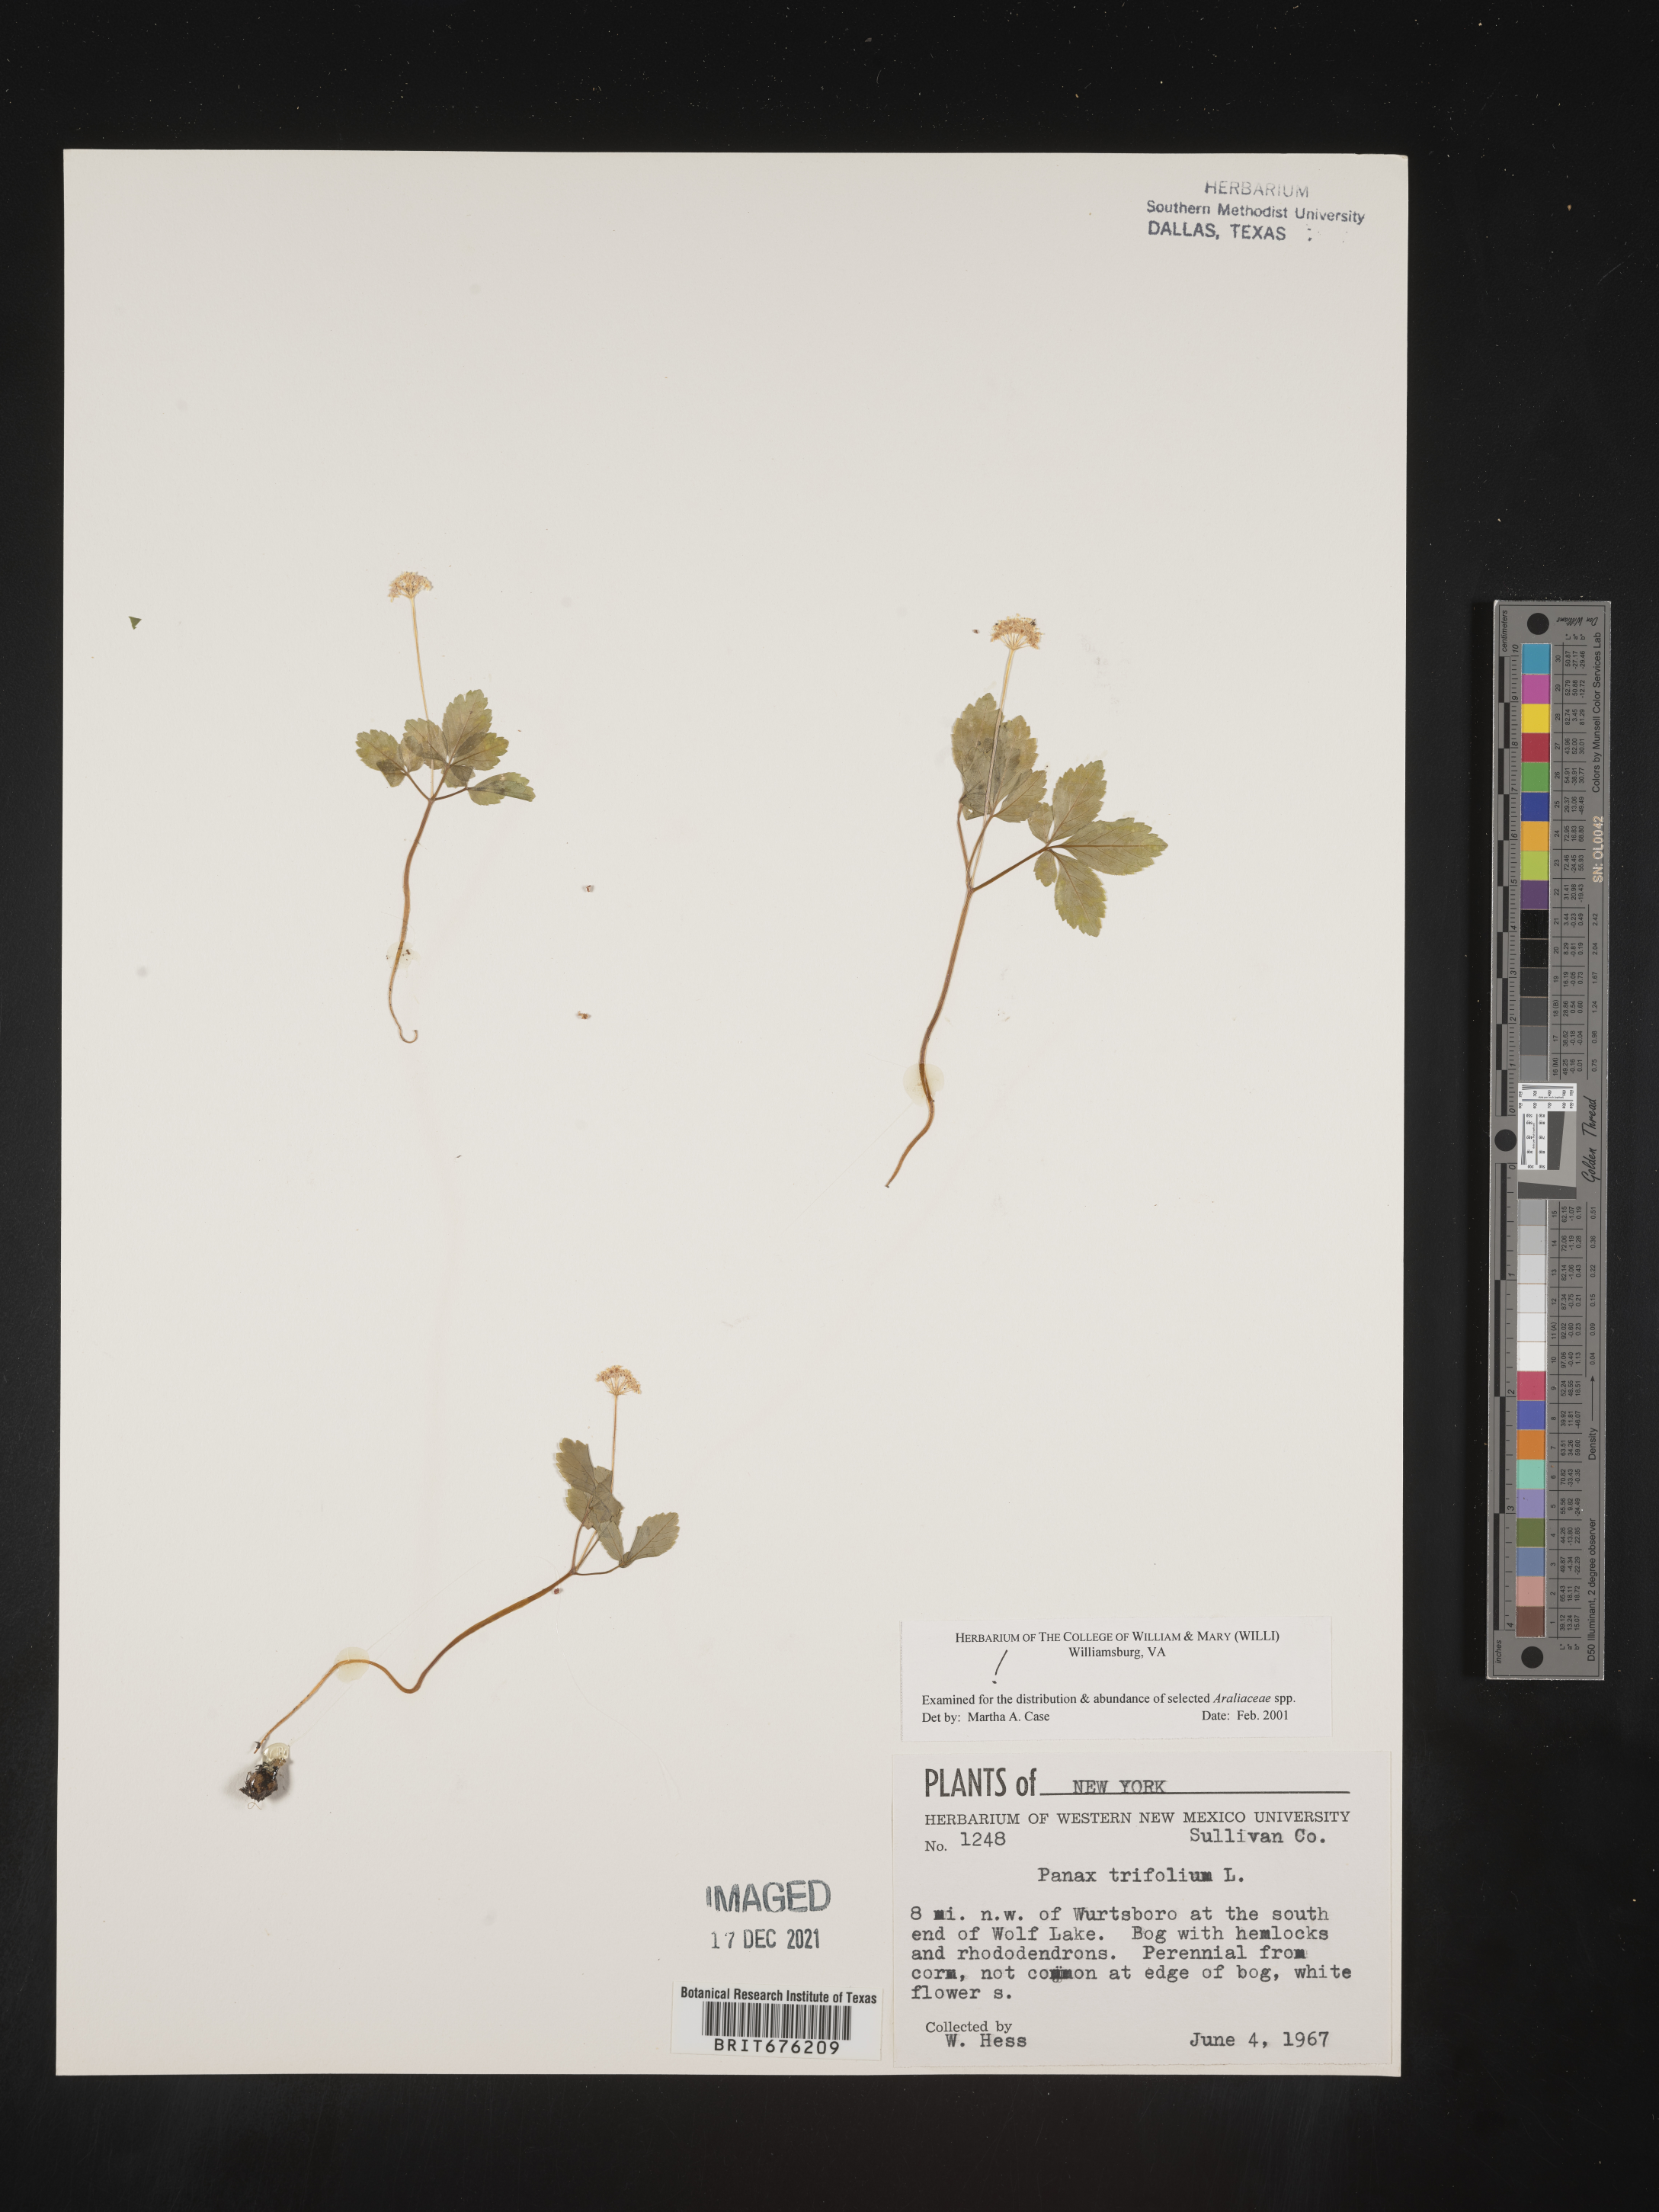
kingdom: Plantae
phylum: Tracheophyta
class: Magnoliopsida
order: Apiales
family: Araliaceae
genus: Panax
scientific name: Panax trifolius
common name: Dwarf ginseng
